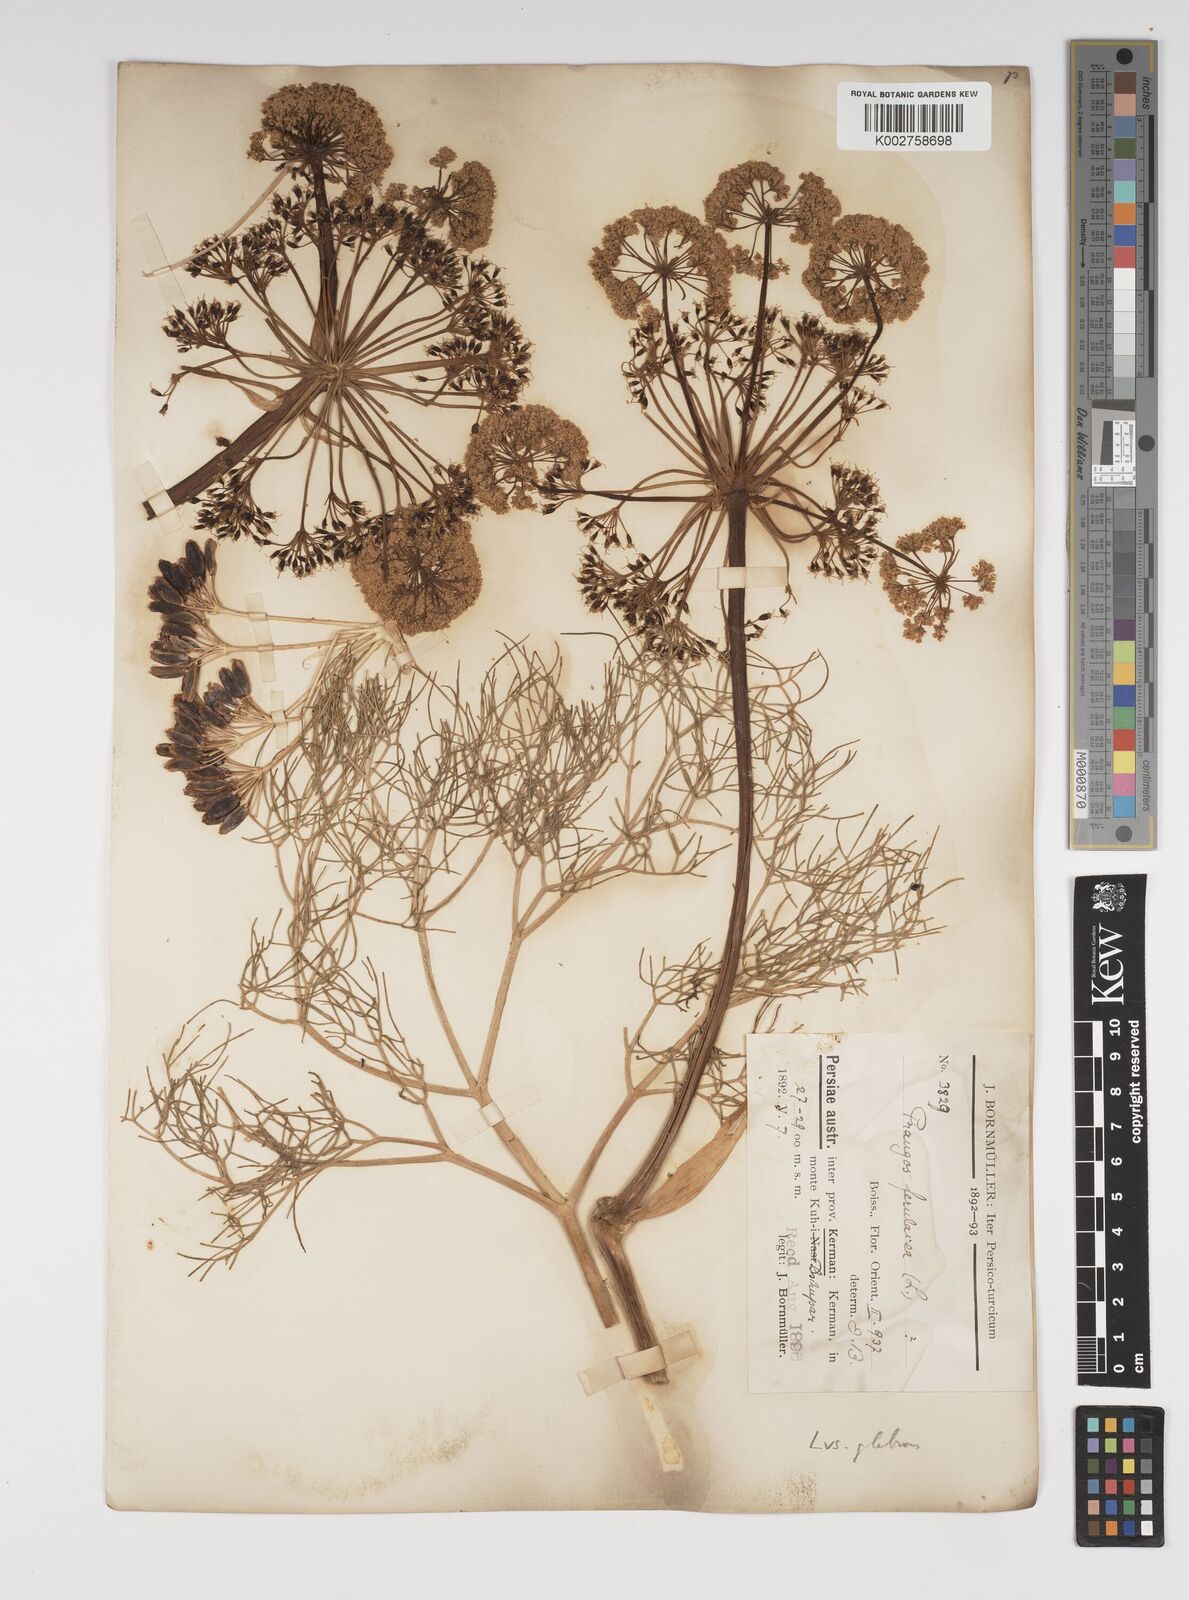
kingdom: Plantae
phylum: Tracheophyta
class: Magnoliopsida
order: Apiales
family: Apiaceae
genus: Prangos
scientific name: Prangos ferulacea
